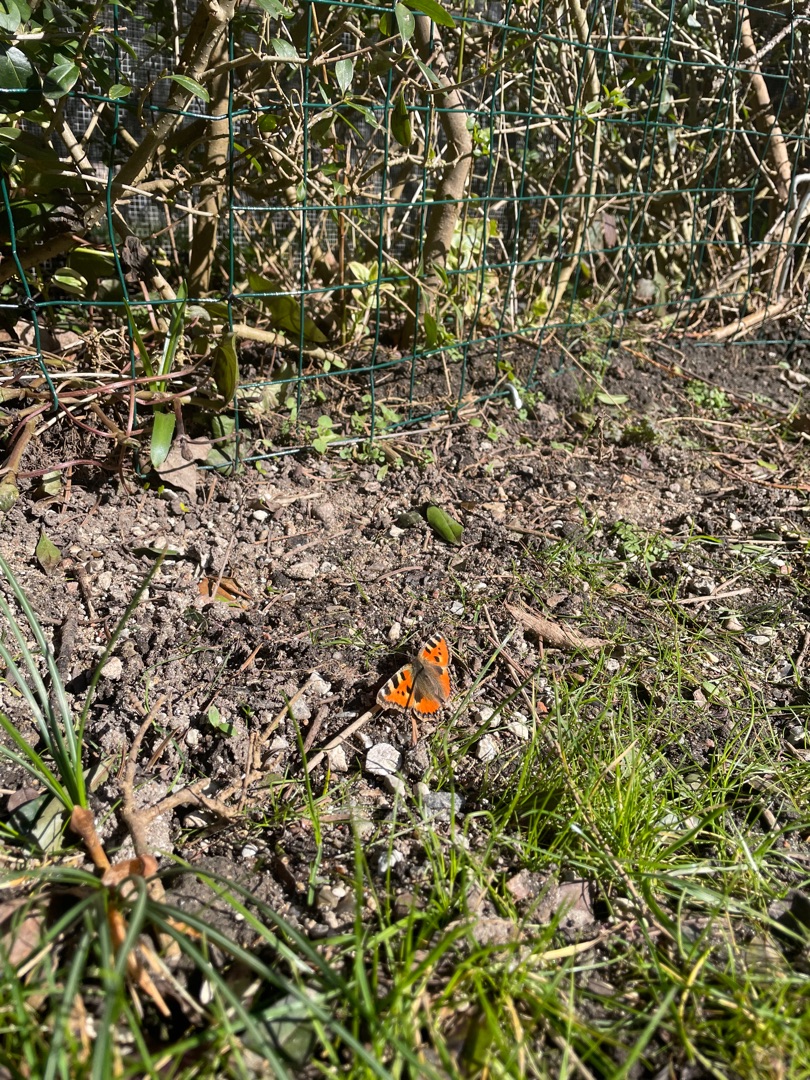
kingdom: Animalia
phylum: Arthropoda
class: Insecta
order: Lepidoptera
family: Nymphalidae
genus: Aglais
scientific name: Aglais urticae
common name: Nældens takvinge
